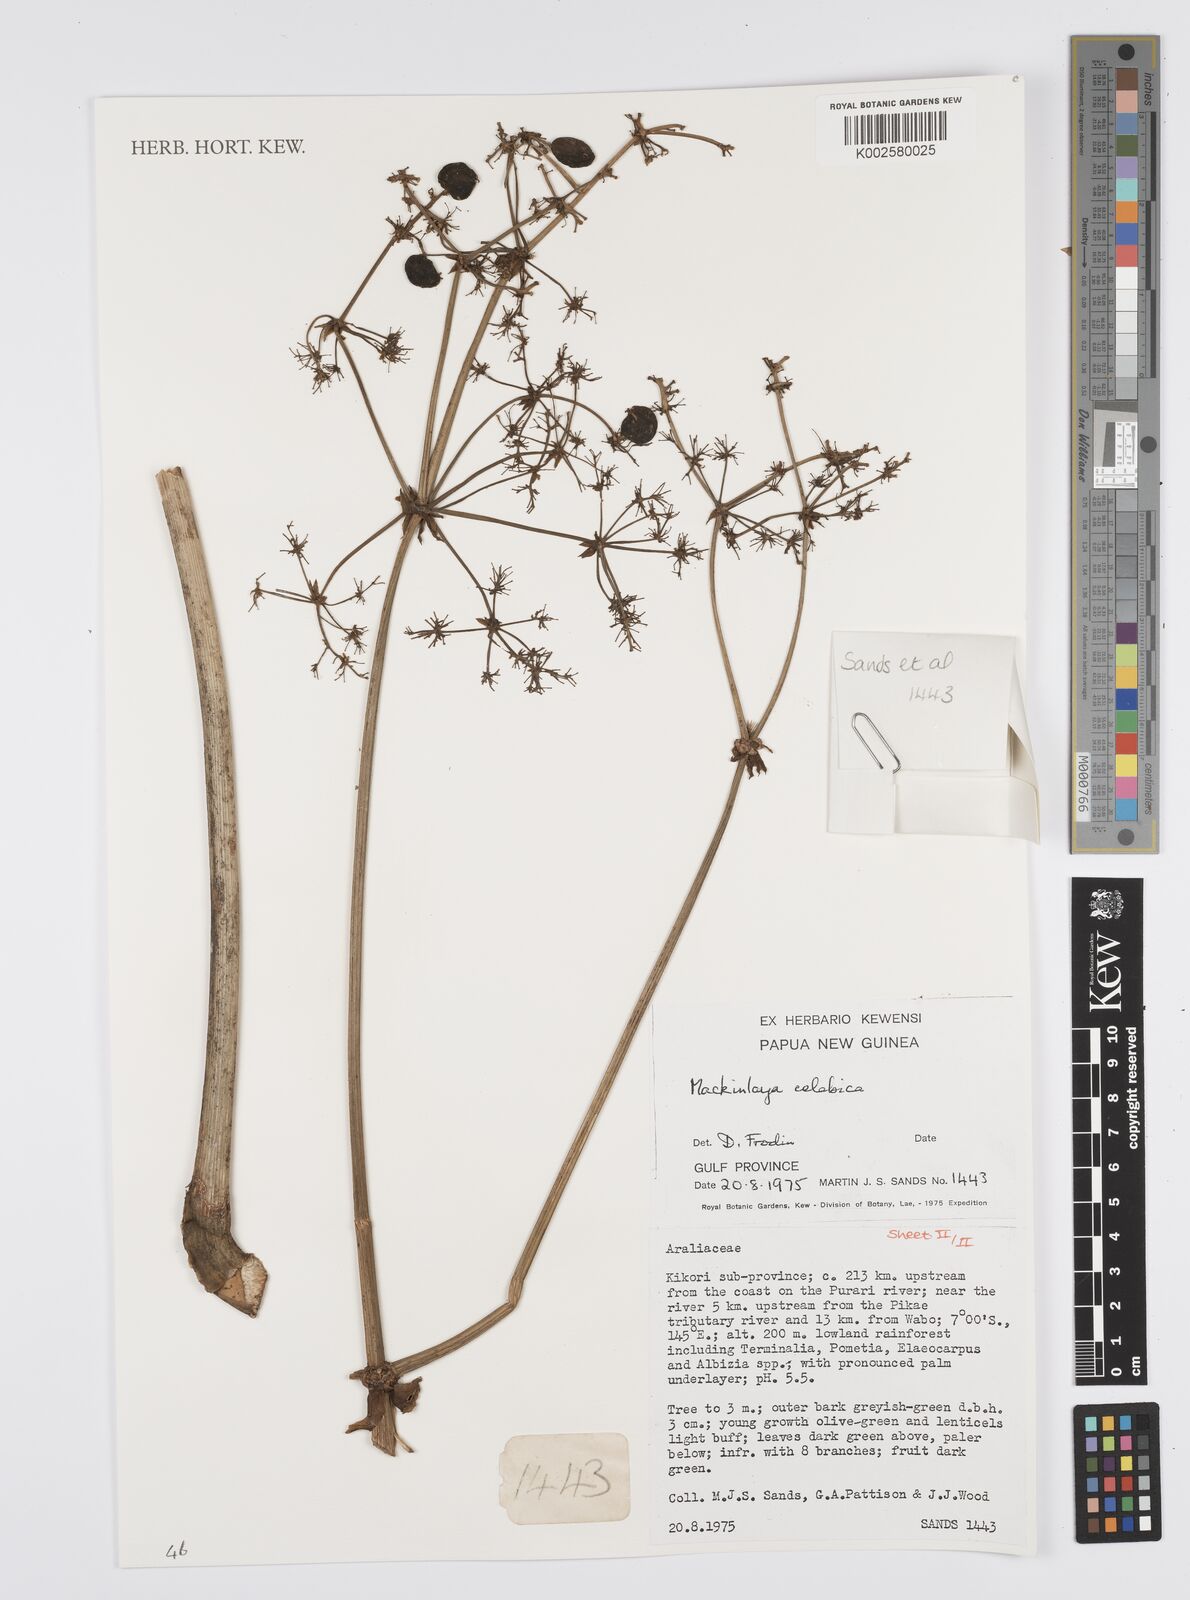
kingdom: Plantae
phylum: Tracheophyta
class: Magnoliopsida
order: Apiales
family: Apiaceae
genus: Mackinlaya
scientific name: Mackinlaya celebica
